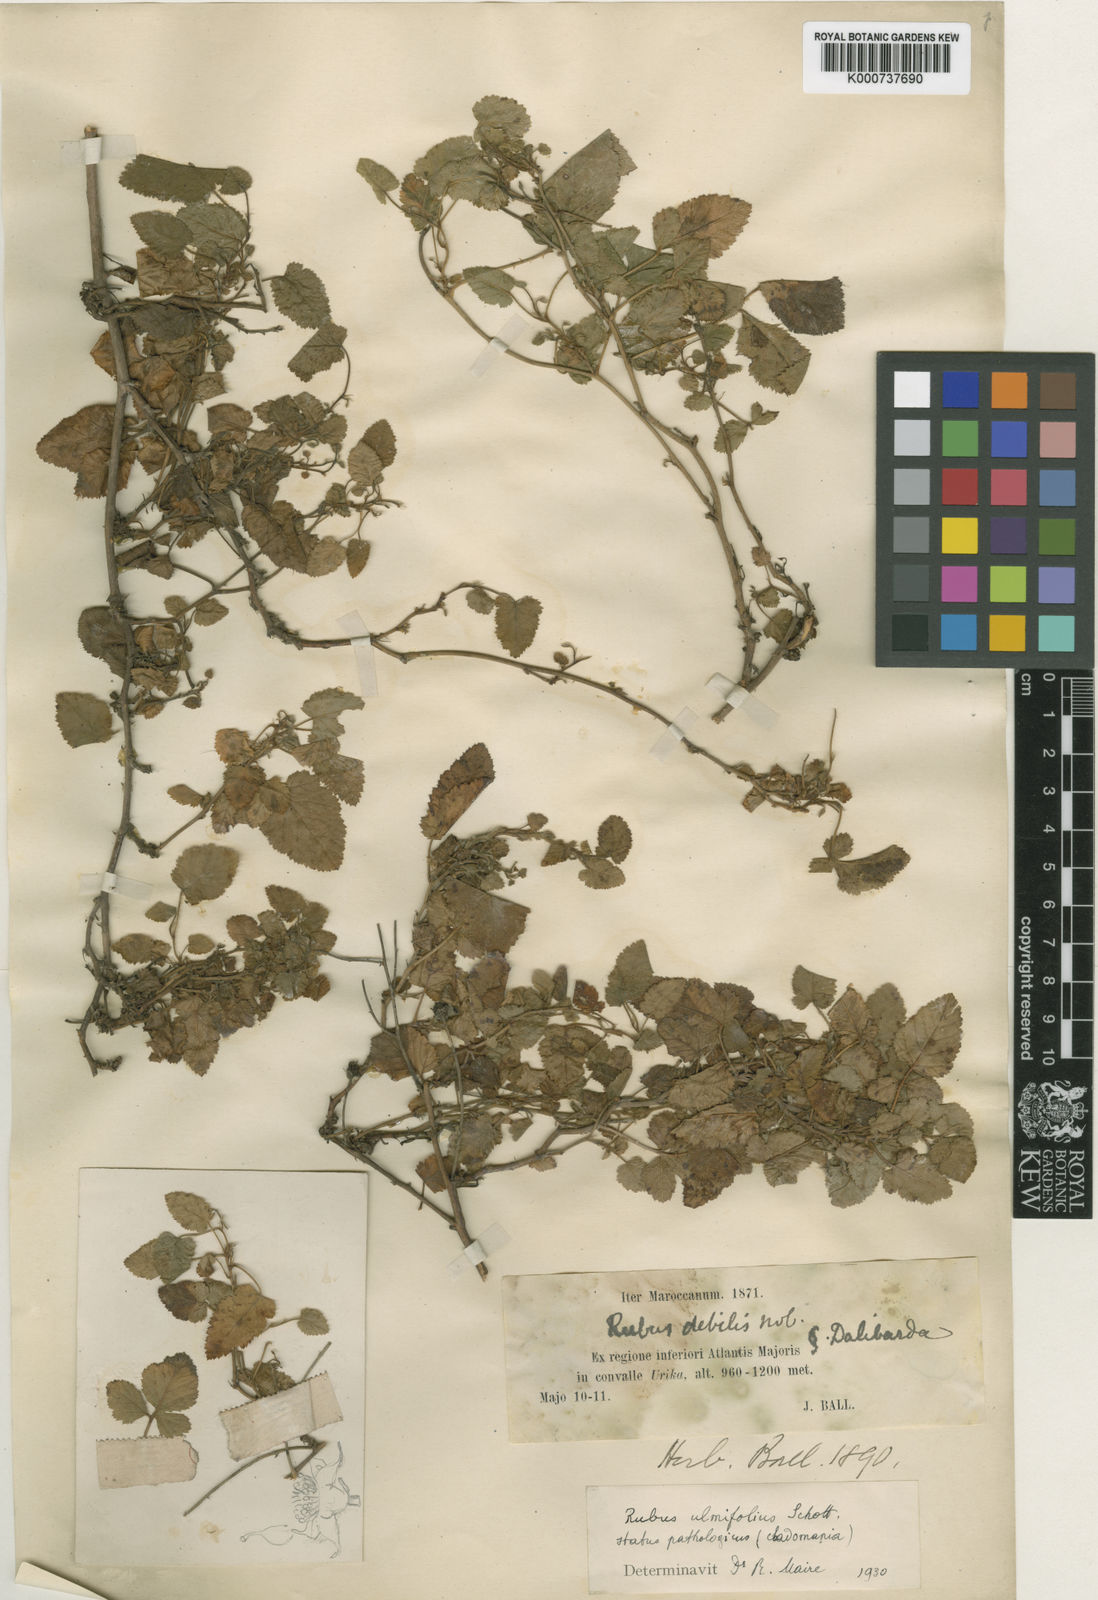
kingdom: Plantae
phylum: Tracheophyta
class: Magnoliopsida
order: Rosales
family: Rosaceae
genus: Rubus
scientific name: Rubus ulmifolius
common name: Elmleaf blackberry
